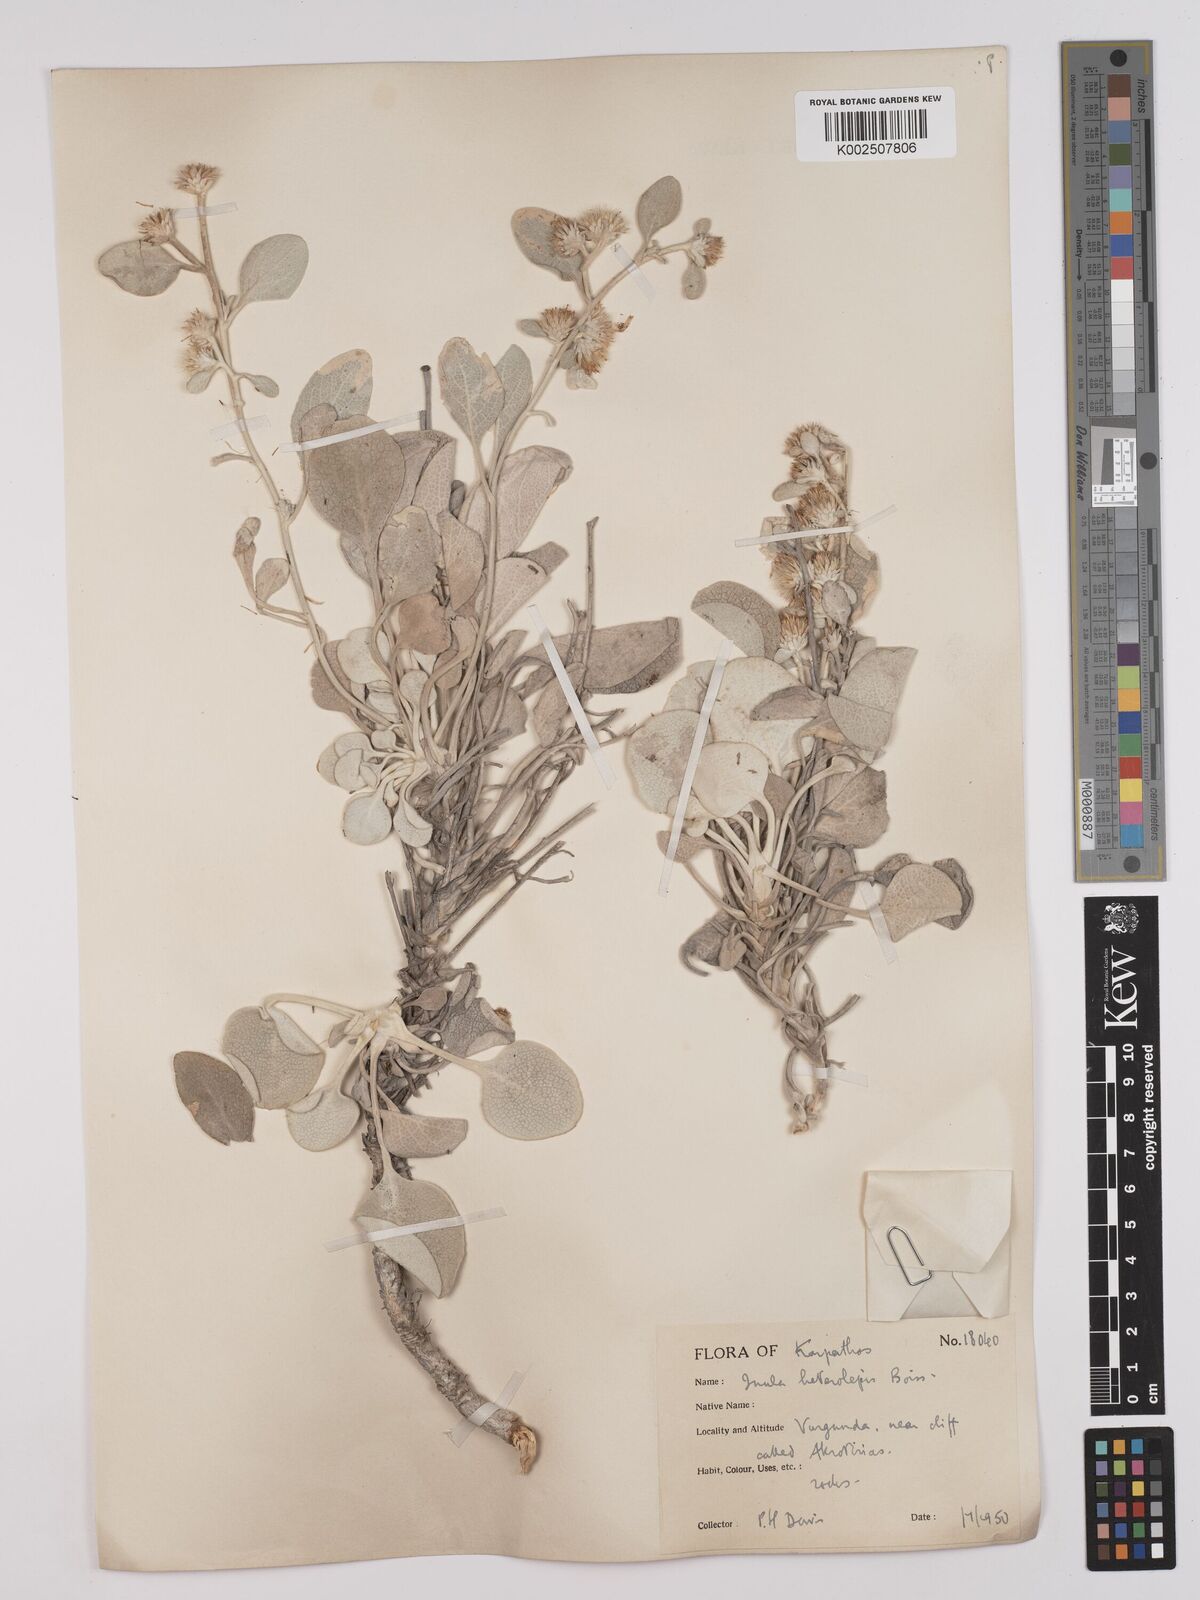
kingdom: Plantae
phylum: Tracheophyta
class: Magnoliopsida
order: Asterales
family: Asteraceae
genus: Pentanema
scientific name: Pentanema verbascifolium
